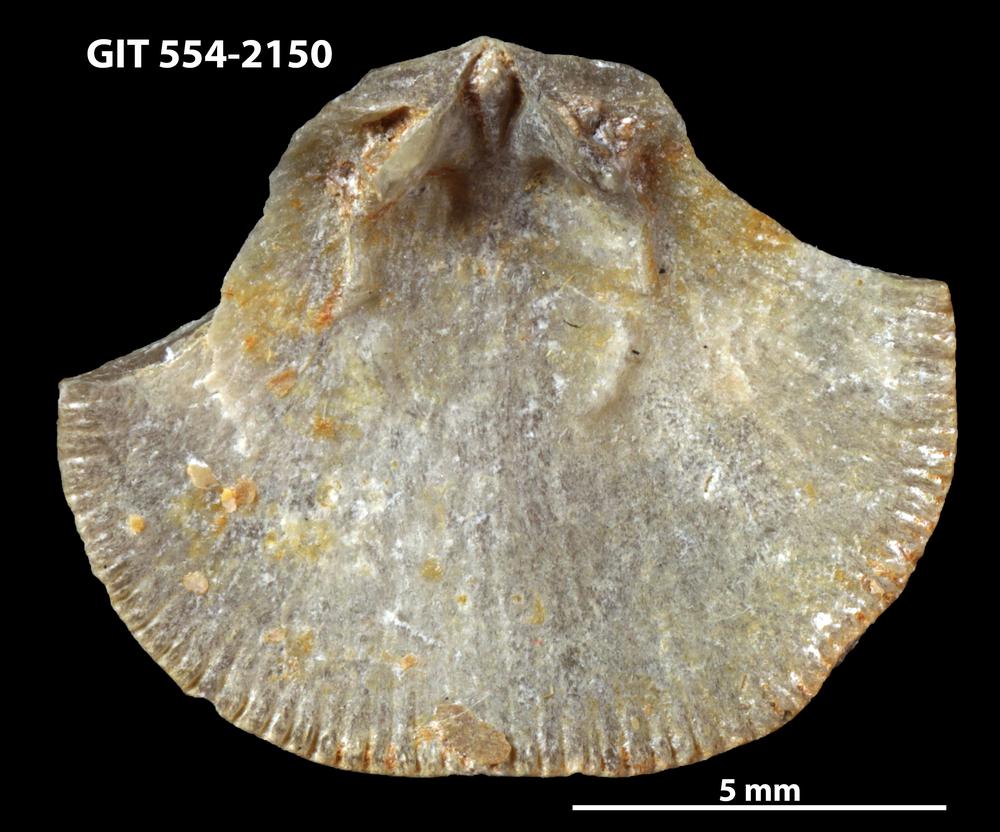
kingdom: Animalia
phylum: Brachiopoda
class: Rhynchonellata
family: Dalmanellidae
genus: Levenea
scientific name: Levenea Orthis canaliculata
